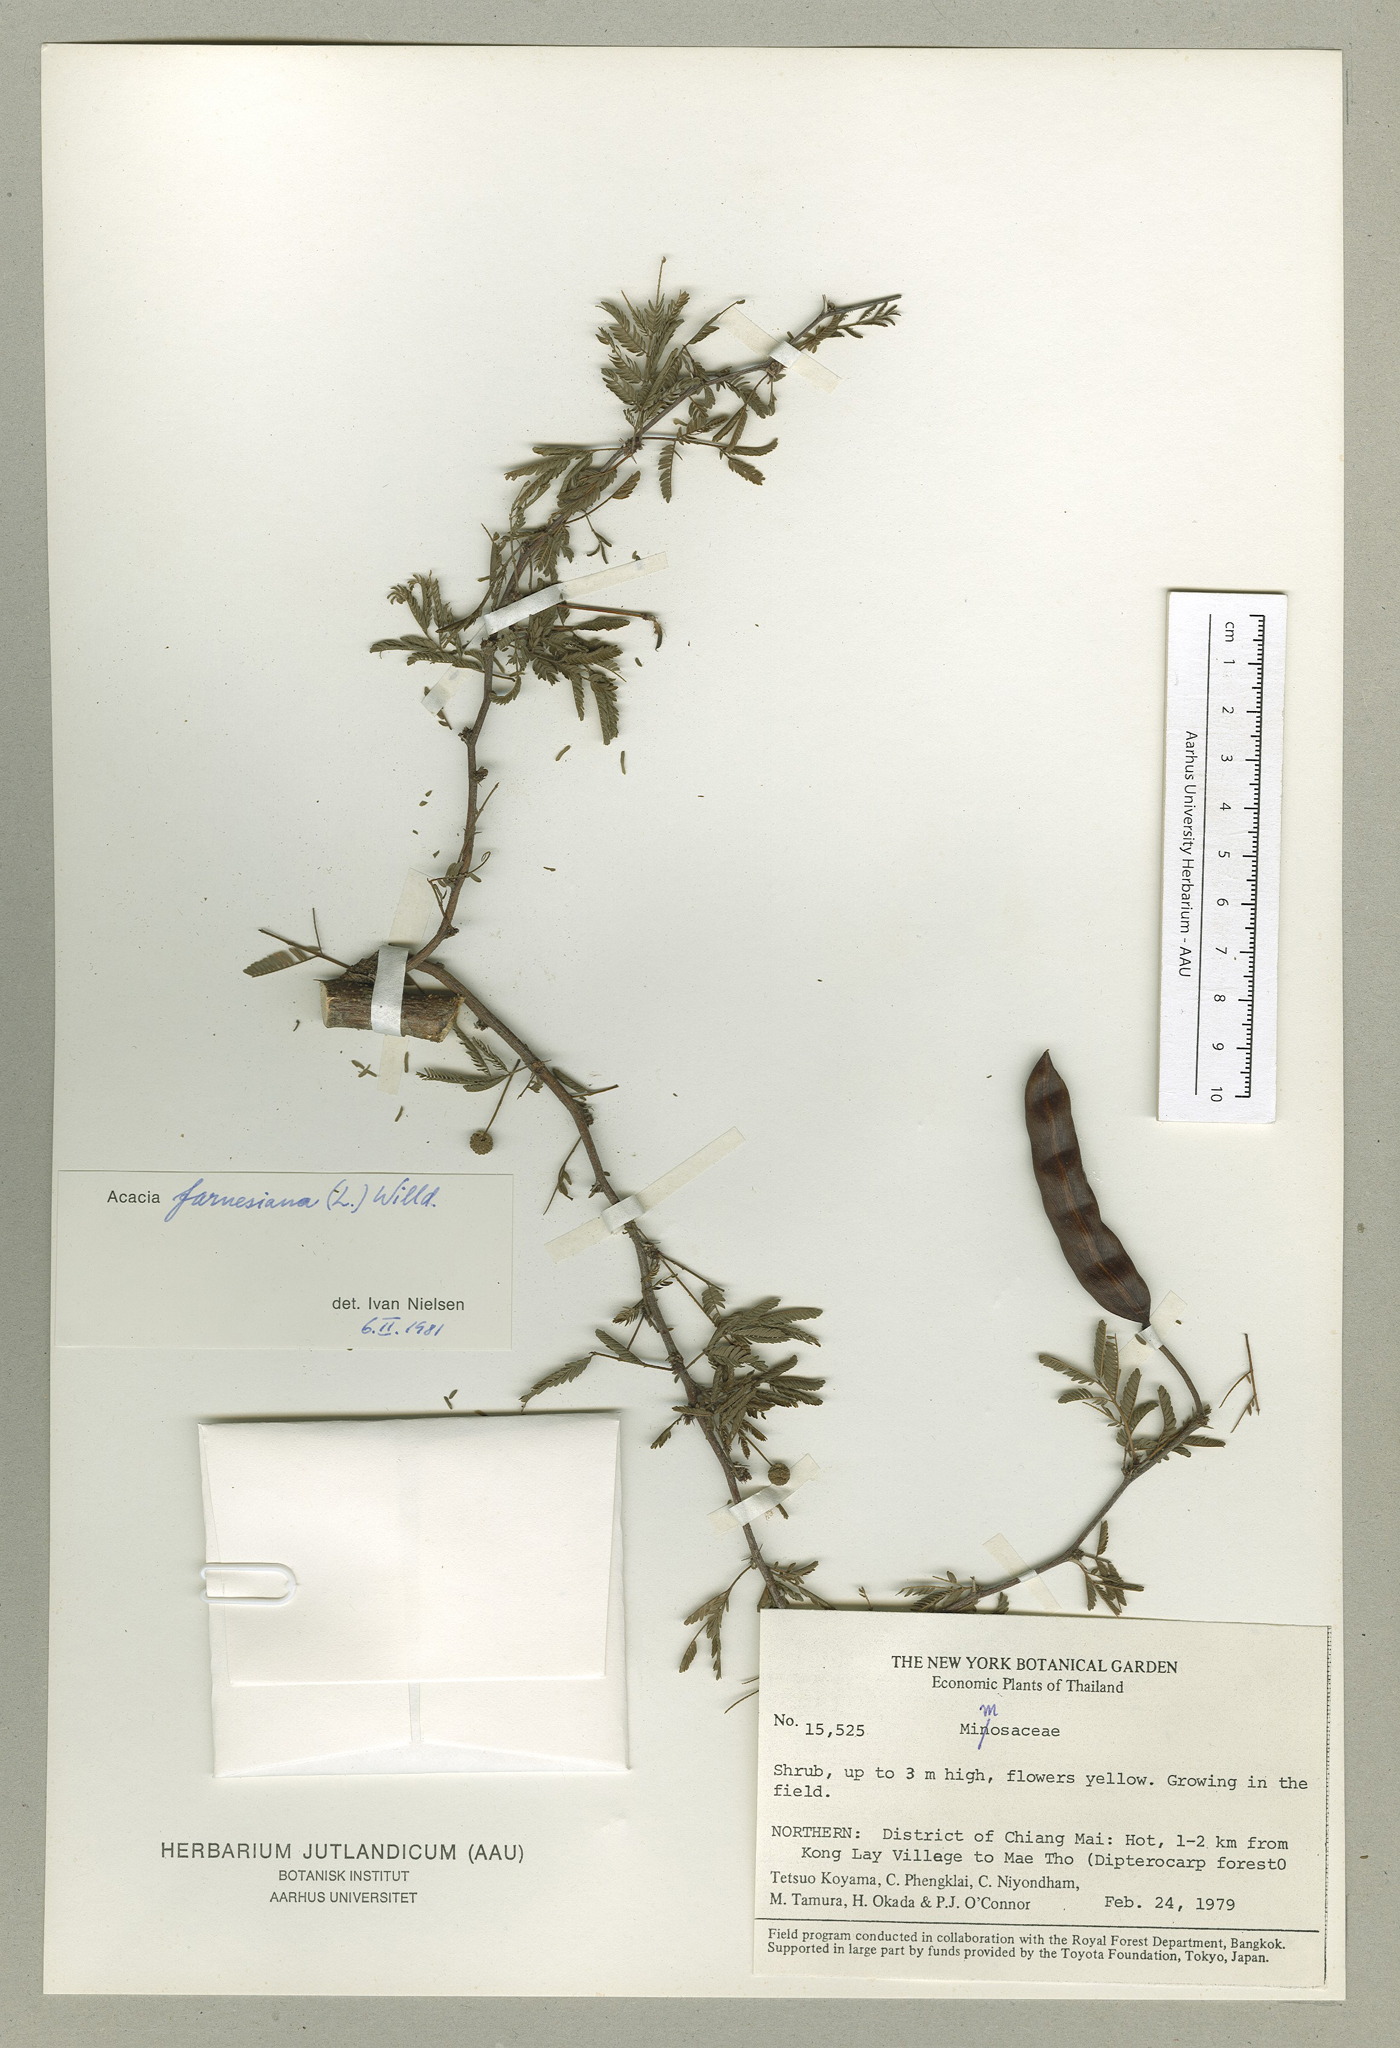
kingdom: Plantae
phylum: Tracheophyta
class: Magnoliopsida
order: Fabales
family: Fabaceae
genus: Vachellia
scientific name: Vachellia farnesiana
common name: Sweet acacia
